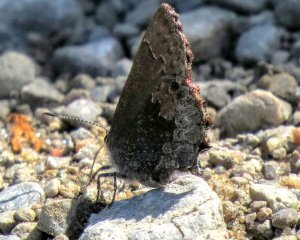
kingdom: Animalia
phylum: Arthropoda
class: Insecta
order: Lepidoptera
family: Lycaenidae
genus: Callophrys
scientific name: Callophrys polios
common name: Hoary Elfin
